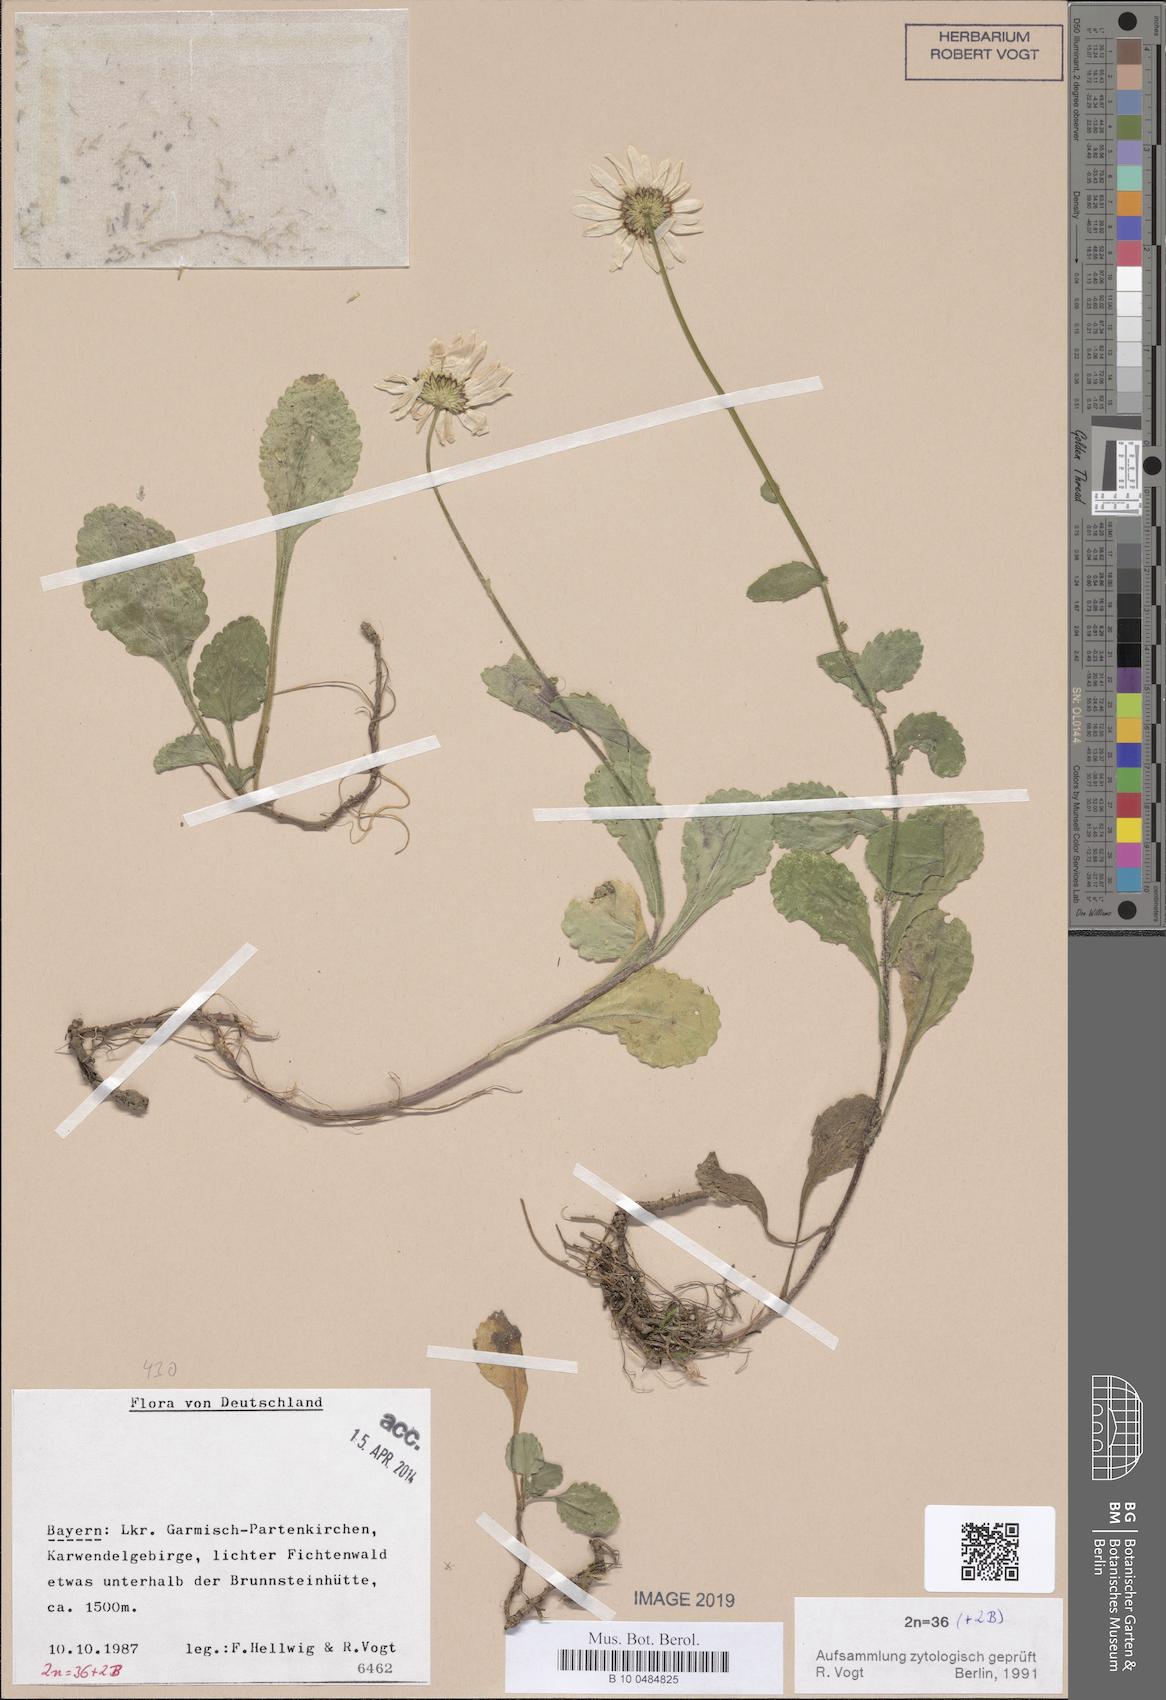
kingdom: Plantae
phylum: Tracheophyta
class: Magnoliopsida
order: Asterales
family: Asteraceae
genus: Leucanthemum
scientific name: Leucanthemum ircutianum
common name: Daisy
